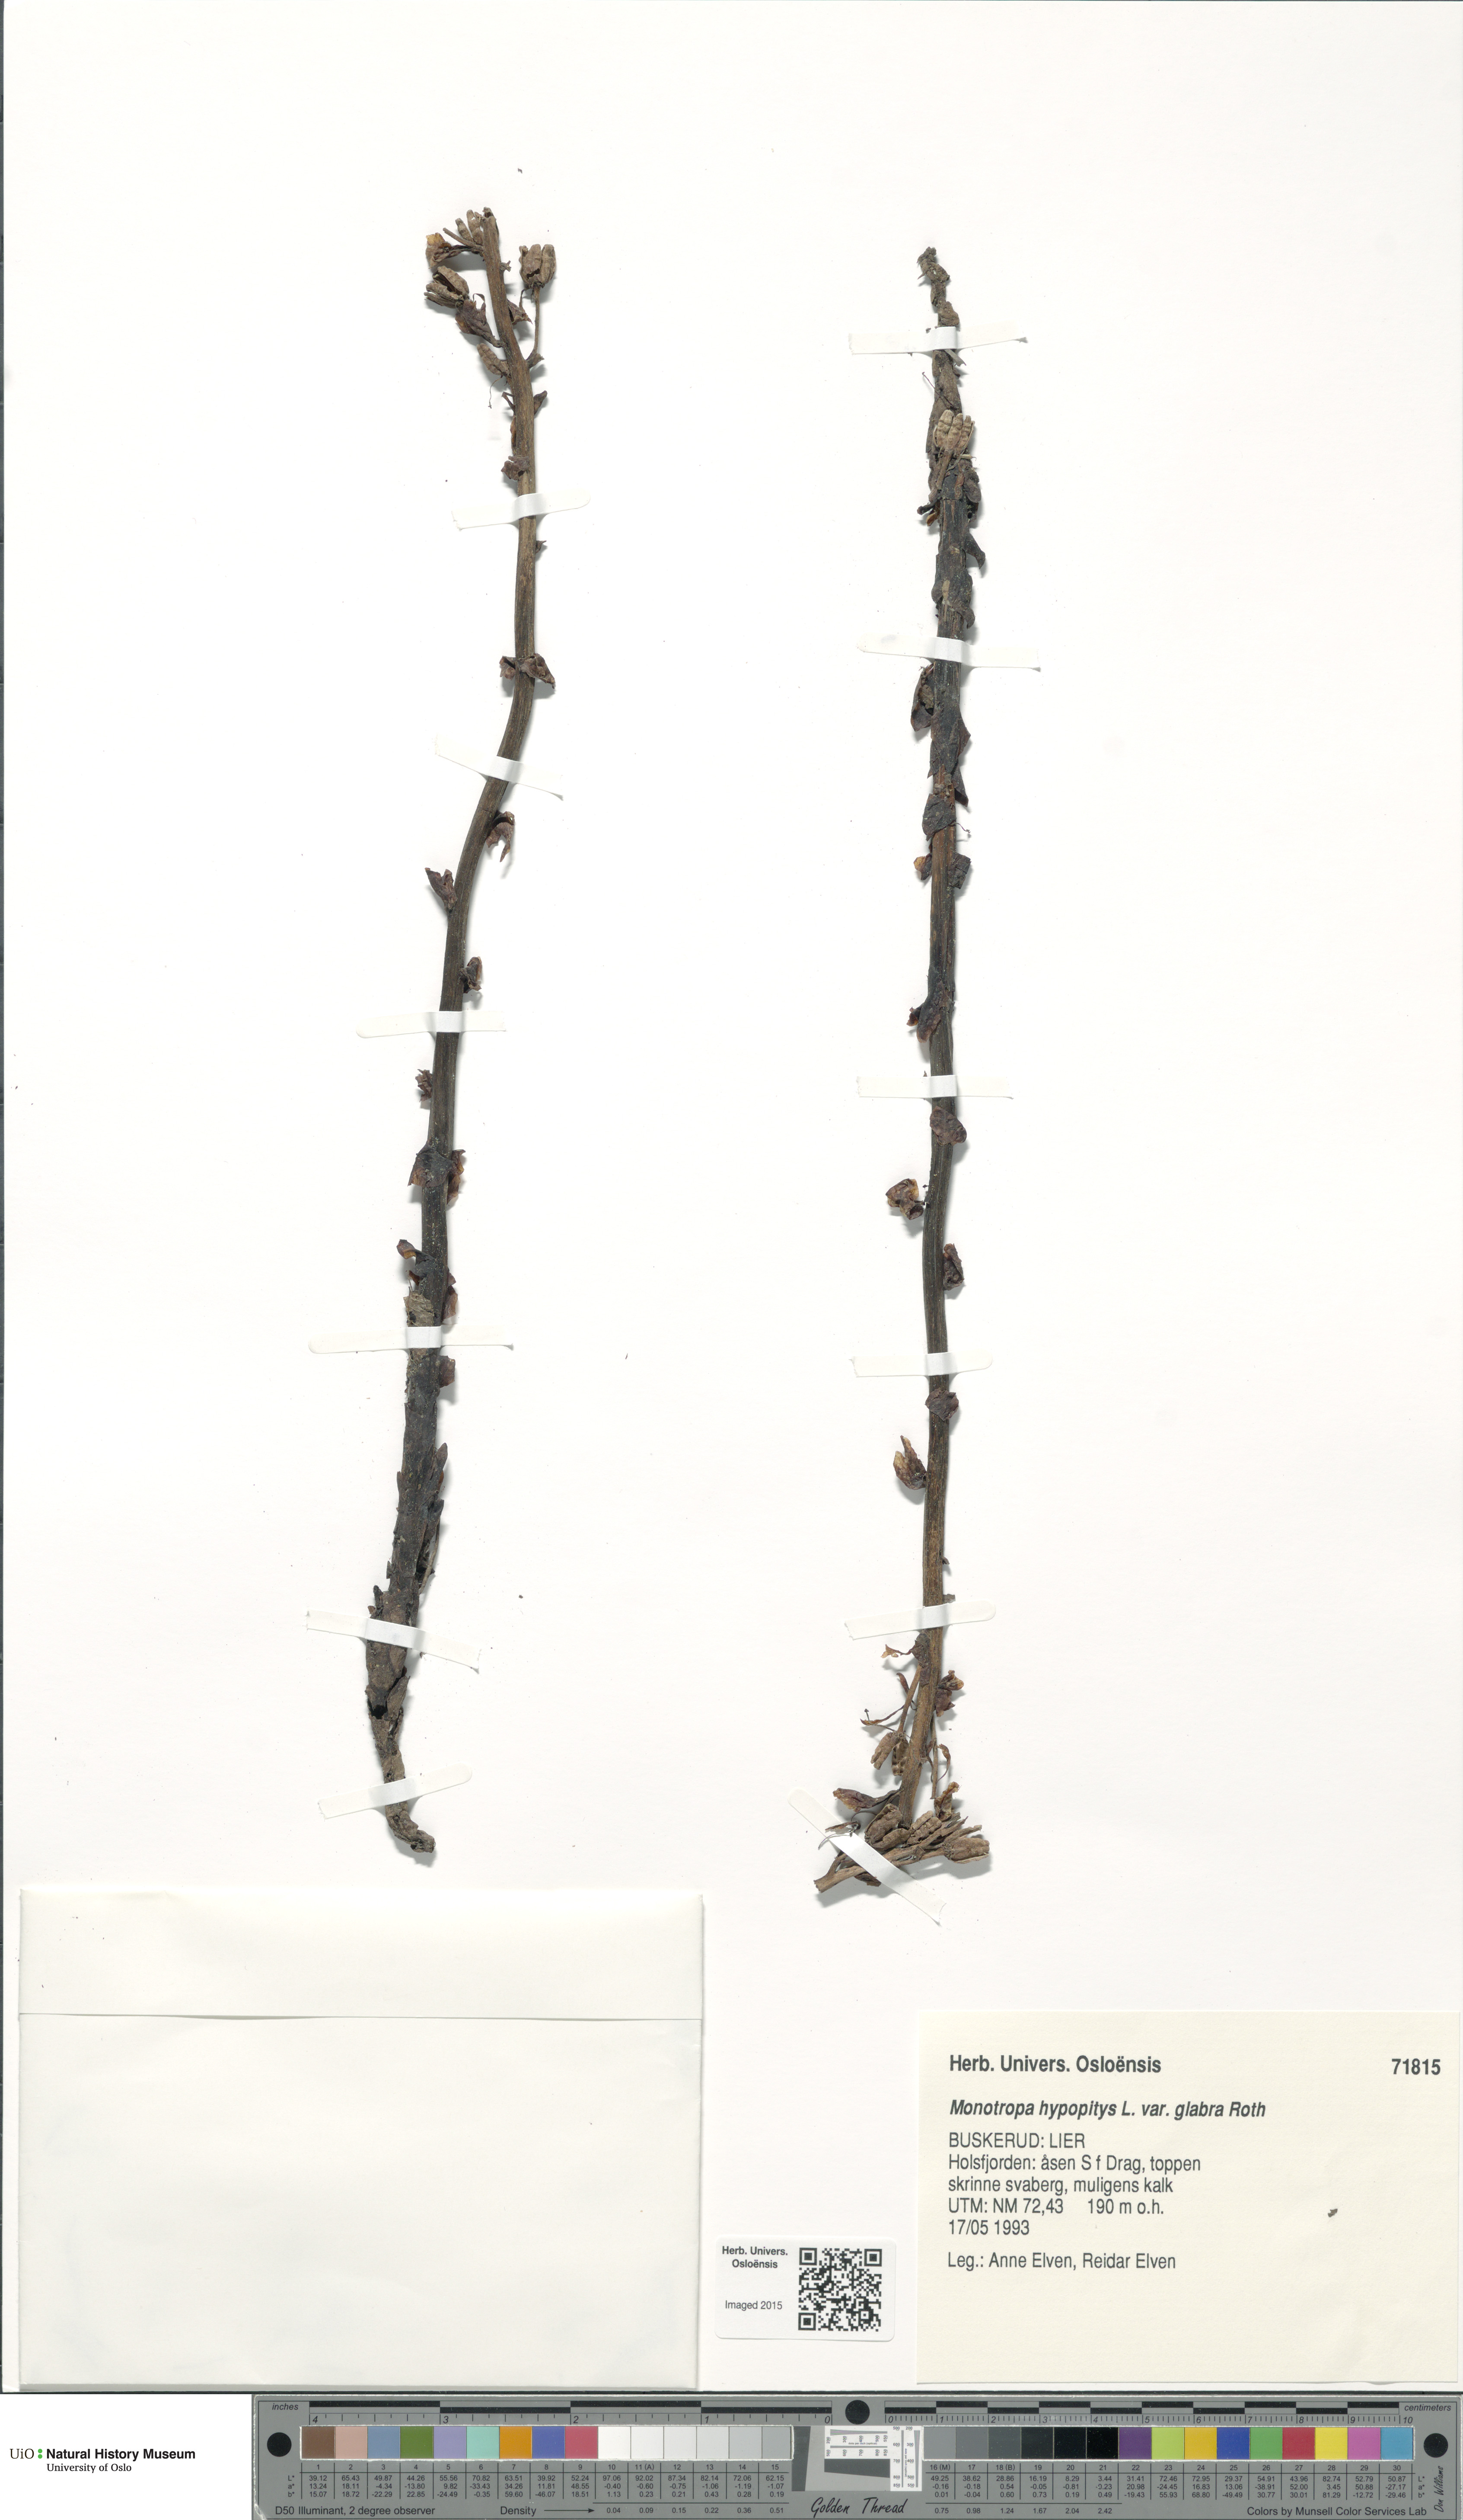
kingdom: Plantae
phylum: Tracheophyta
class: Magnoliopsida
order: Ericales
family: Ericaceae
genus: Hypopitys
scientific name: Hypopitys hypophegea
